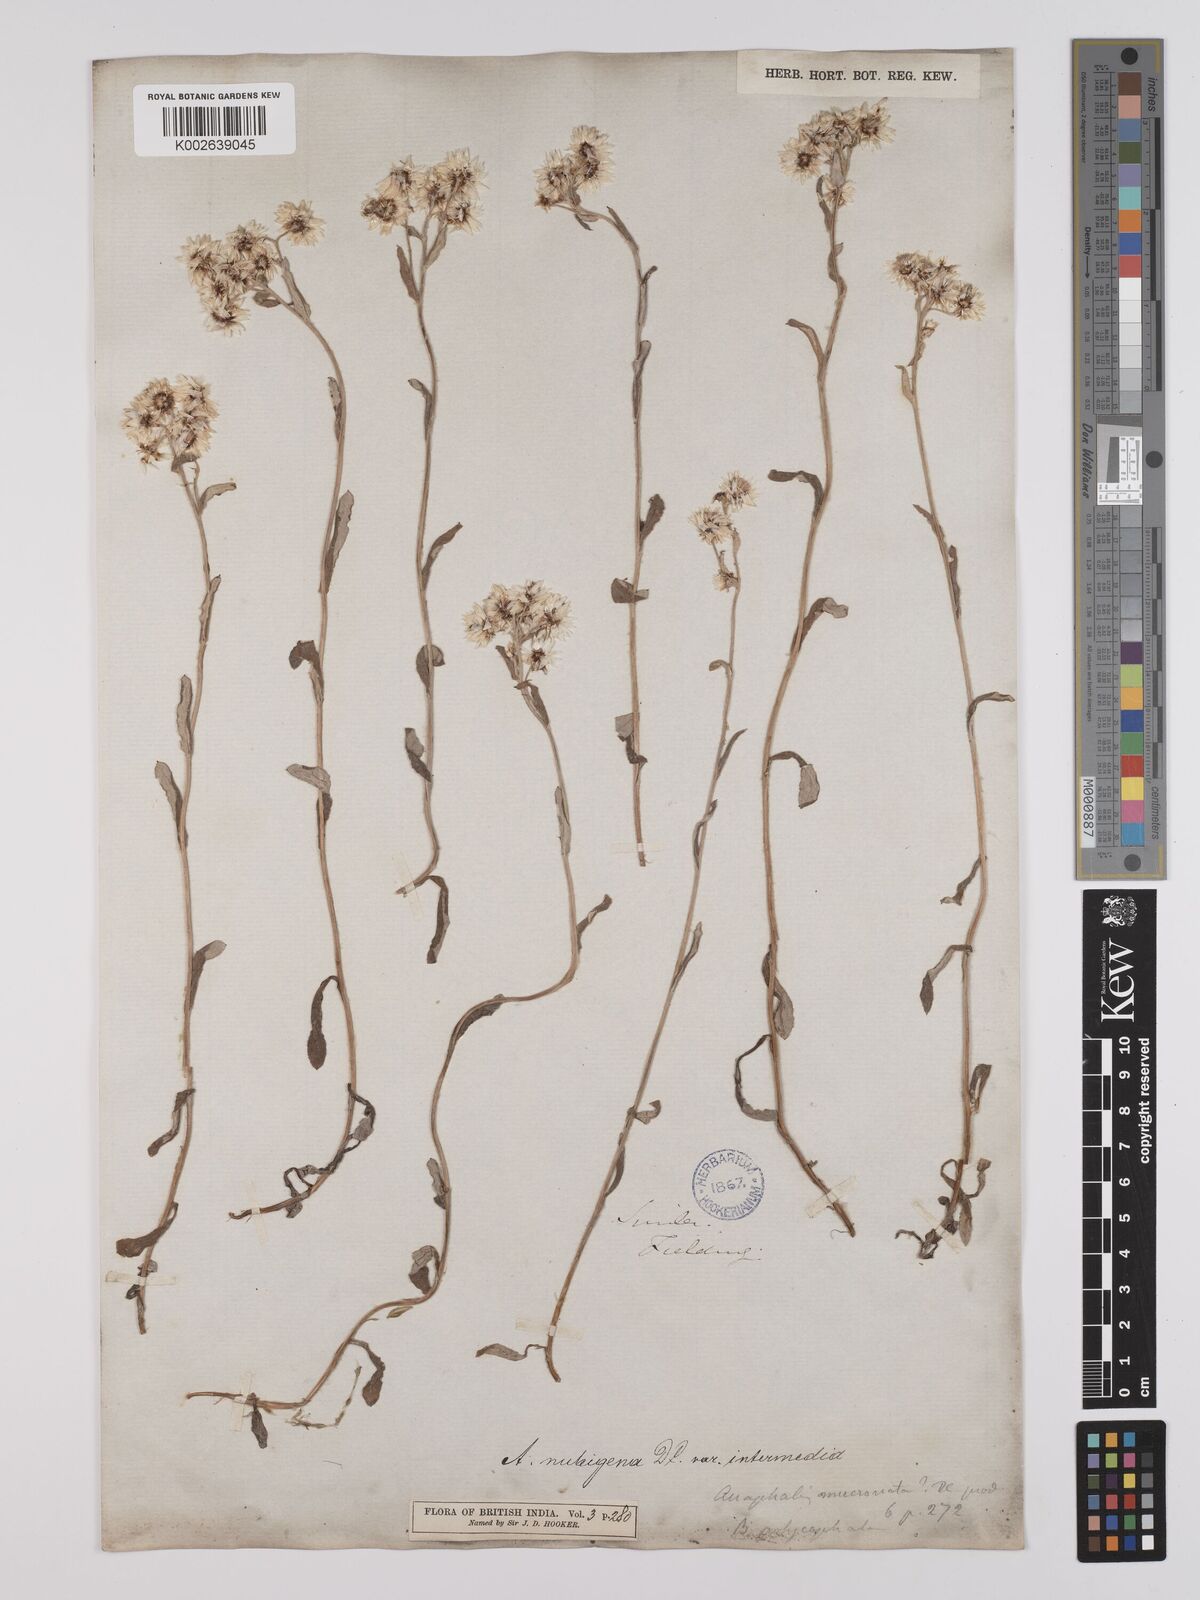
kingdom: Plantae
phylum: Tracheophyta
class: Magnoliopsida
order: Asterales
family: Asteraceae
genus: Anaphalioides
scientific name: Anaphalioides trinervis
